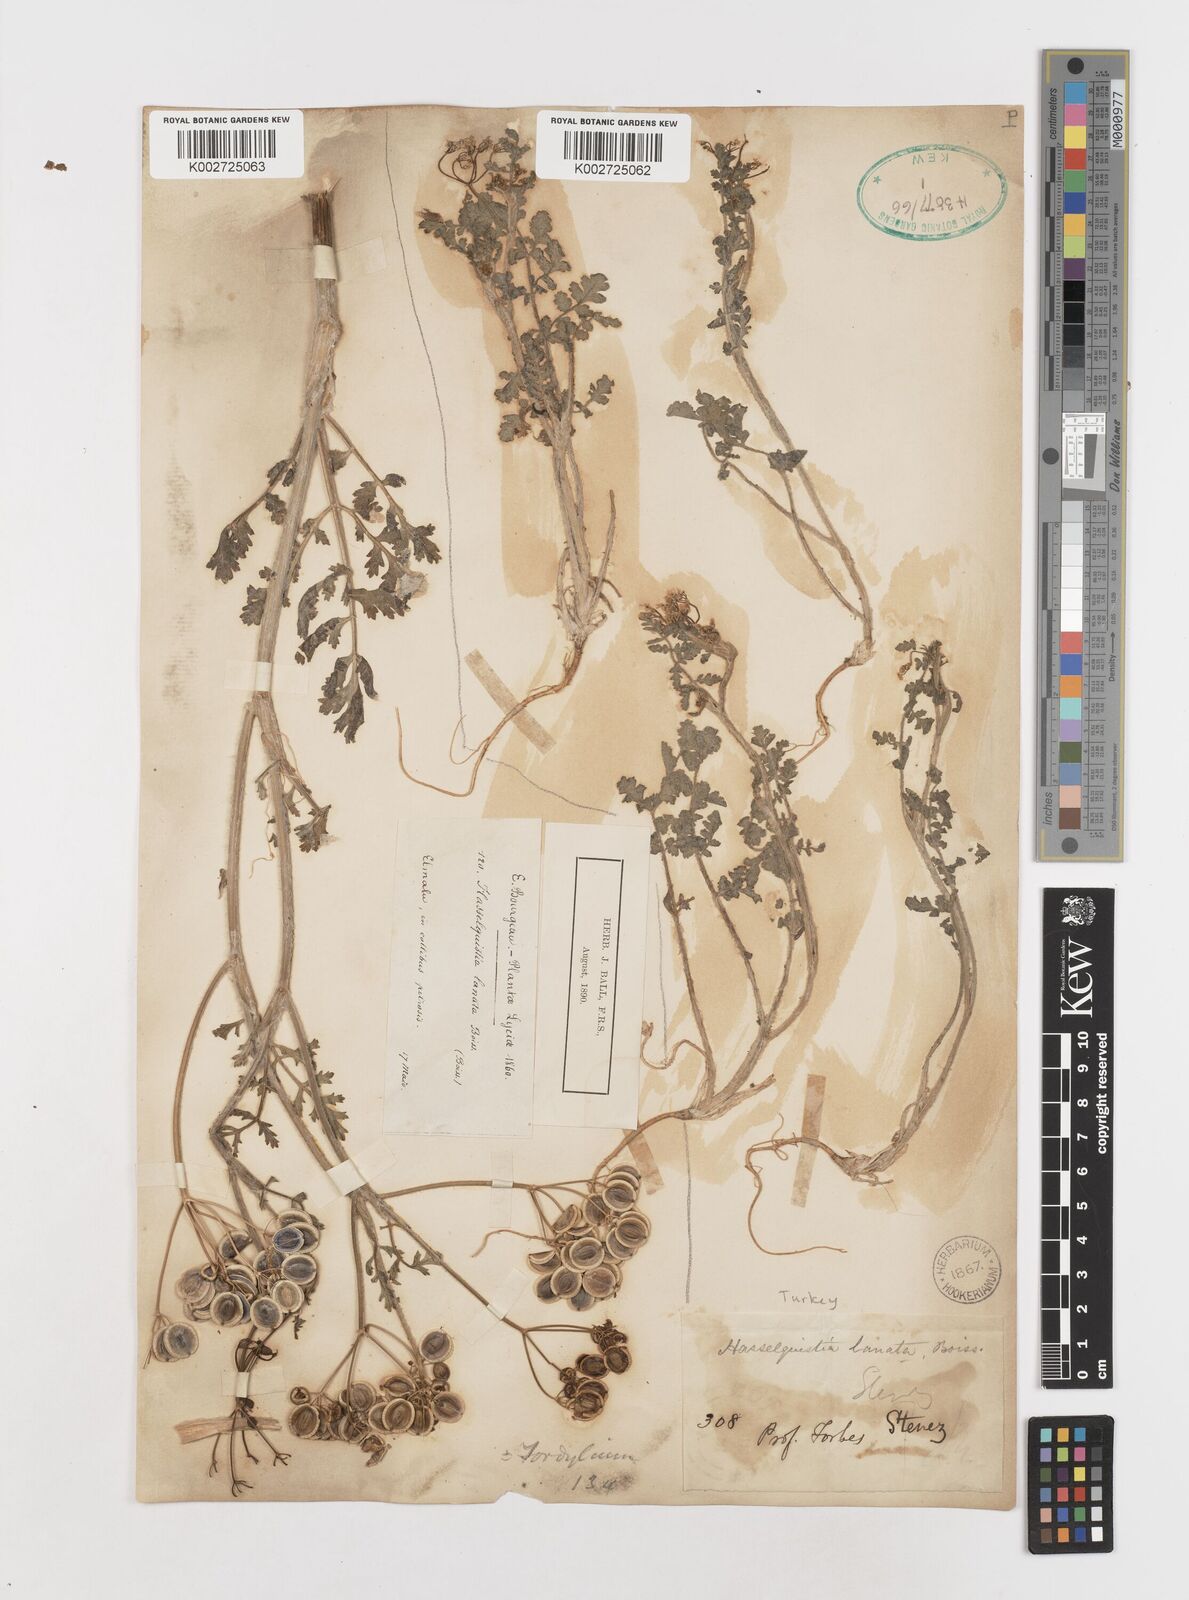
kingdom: Plantae
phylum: Tracheophyta
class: Magnoliopsida
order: Apiales
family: Apiaceae
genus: Tordylium
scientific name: Tordylium lanatum
